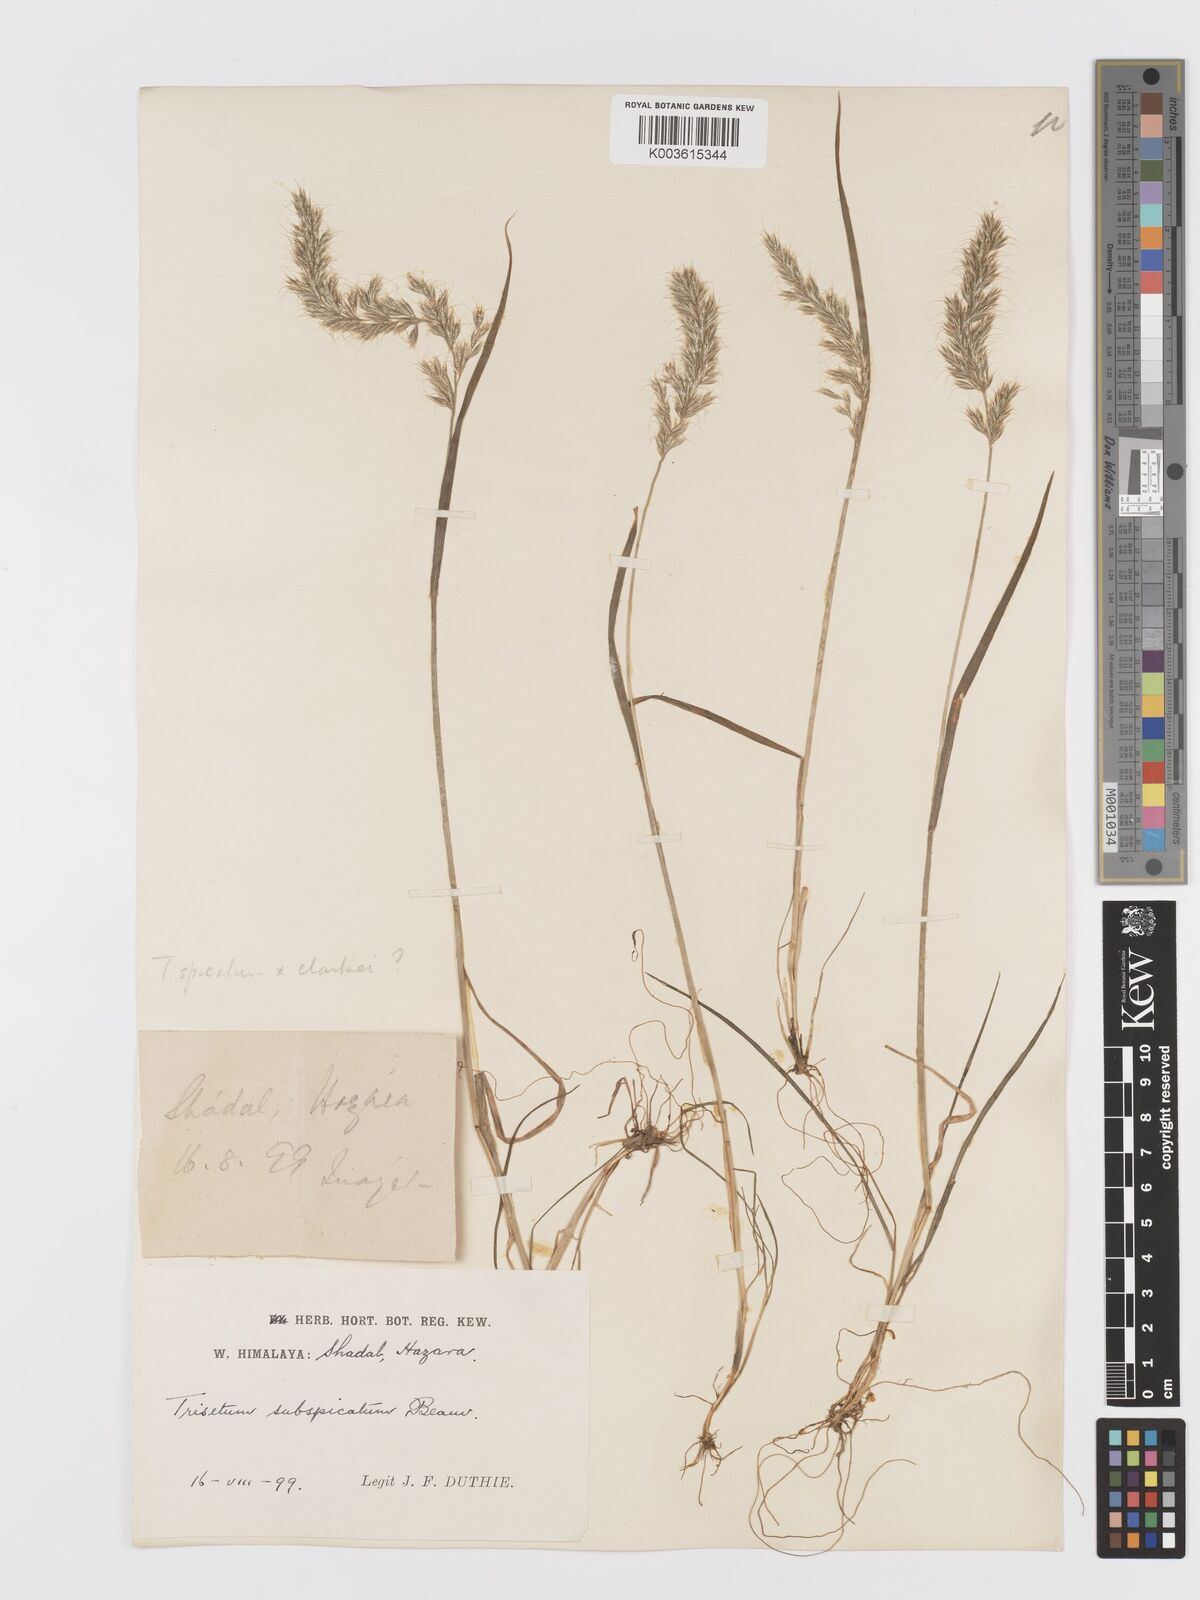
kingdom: Plantae
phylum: Tracheophyta
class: Liliopsida
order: Poales
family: Poaceae
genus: Trisetum
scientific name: Trisetum clarkei
